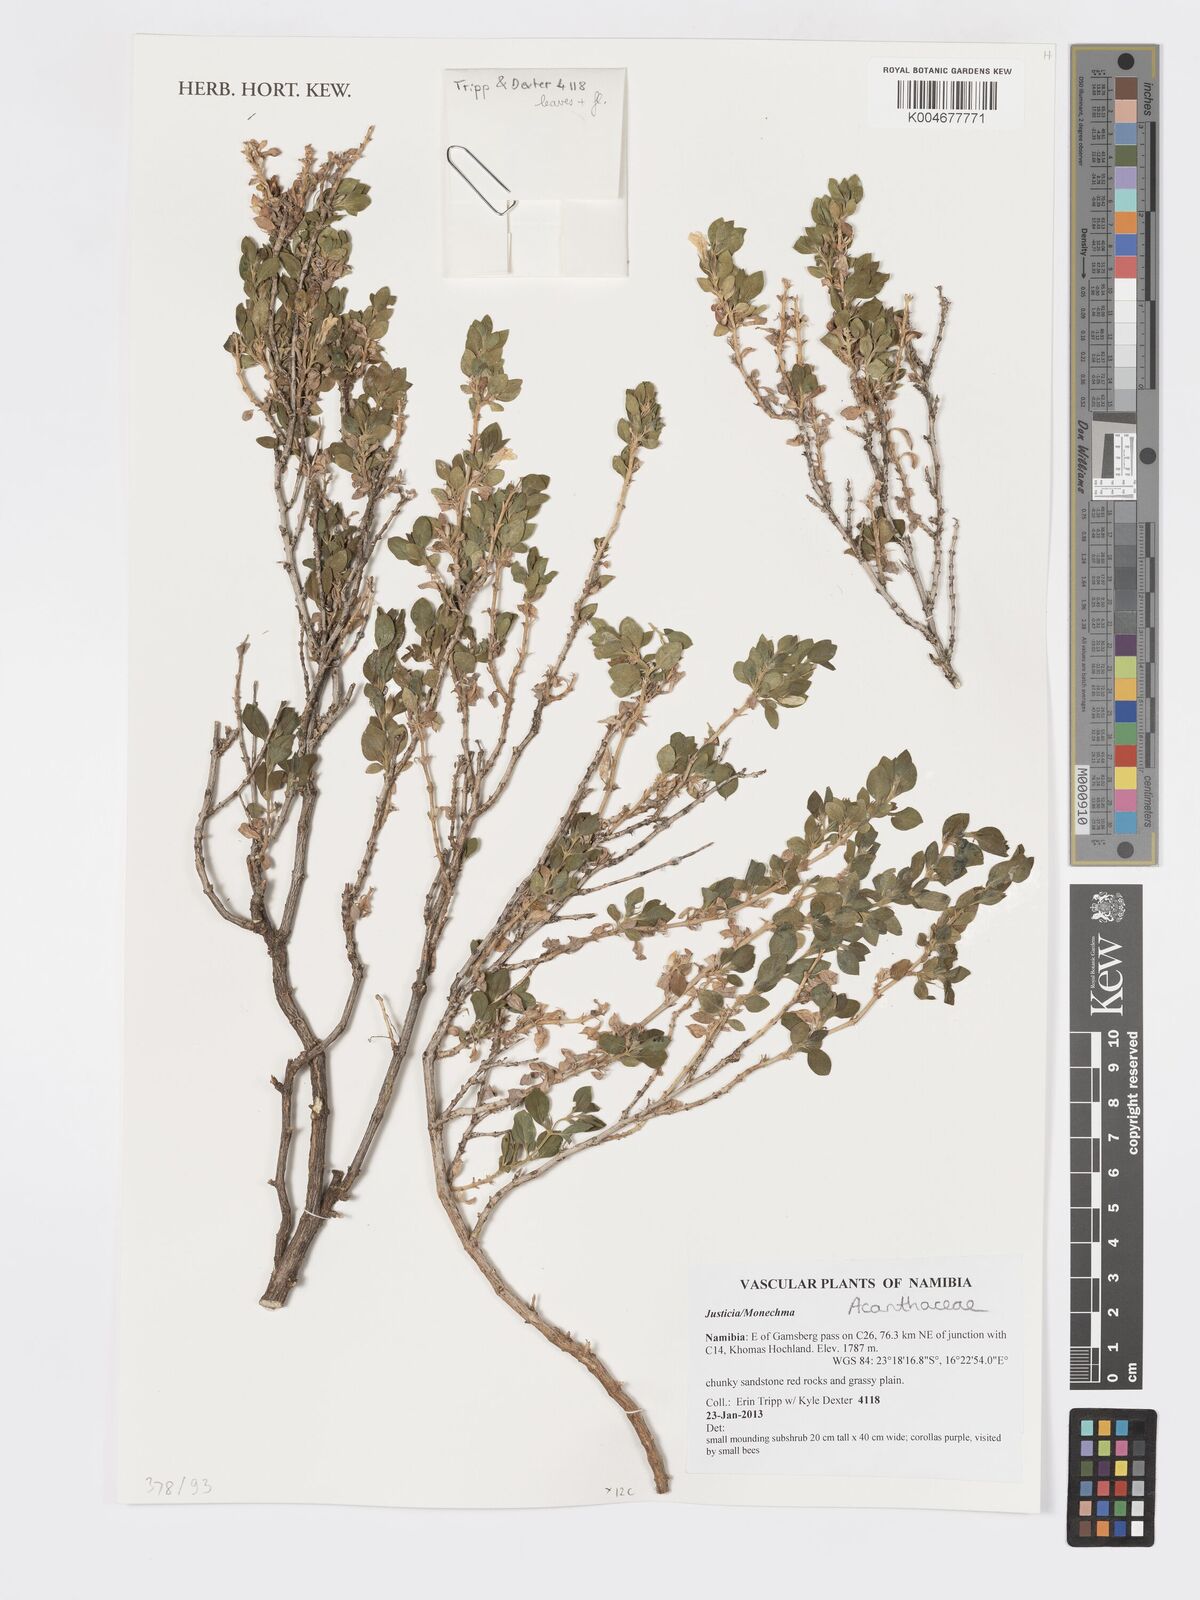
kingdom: Plantae
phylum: Tracheophyta
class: Magnoliopsida
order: Lamiales
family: Acanthaceae
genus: Pogonospermum
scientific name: Pogonospermum ciliare
